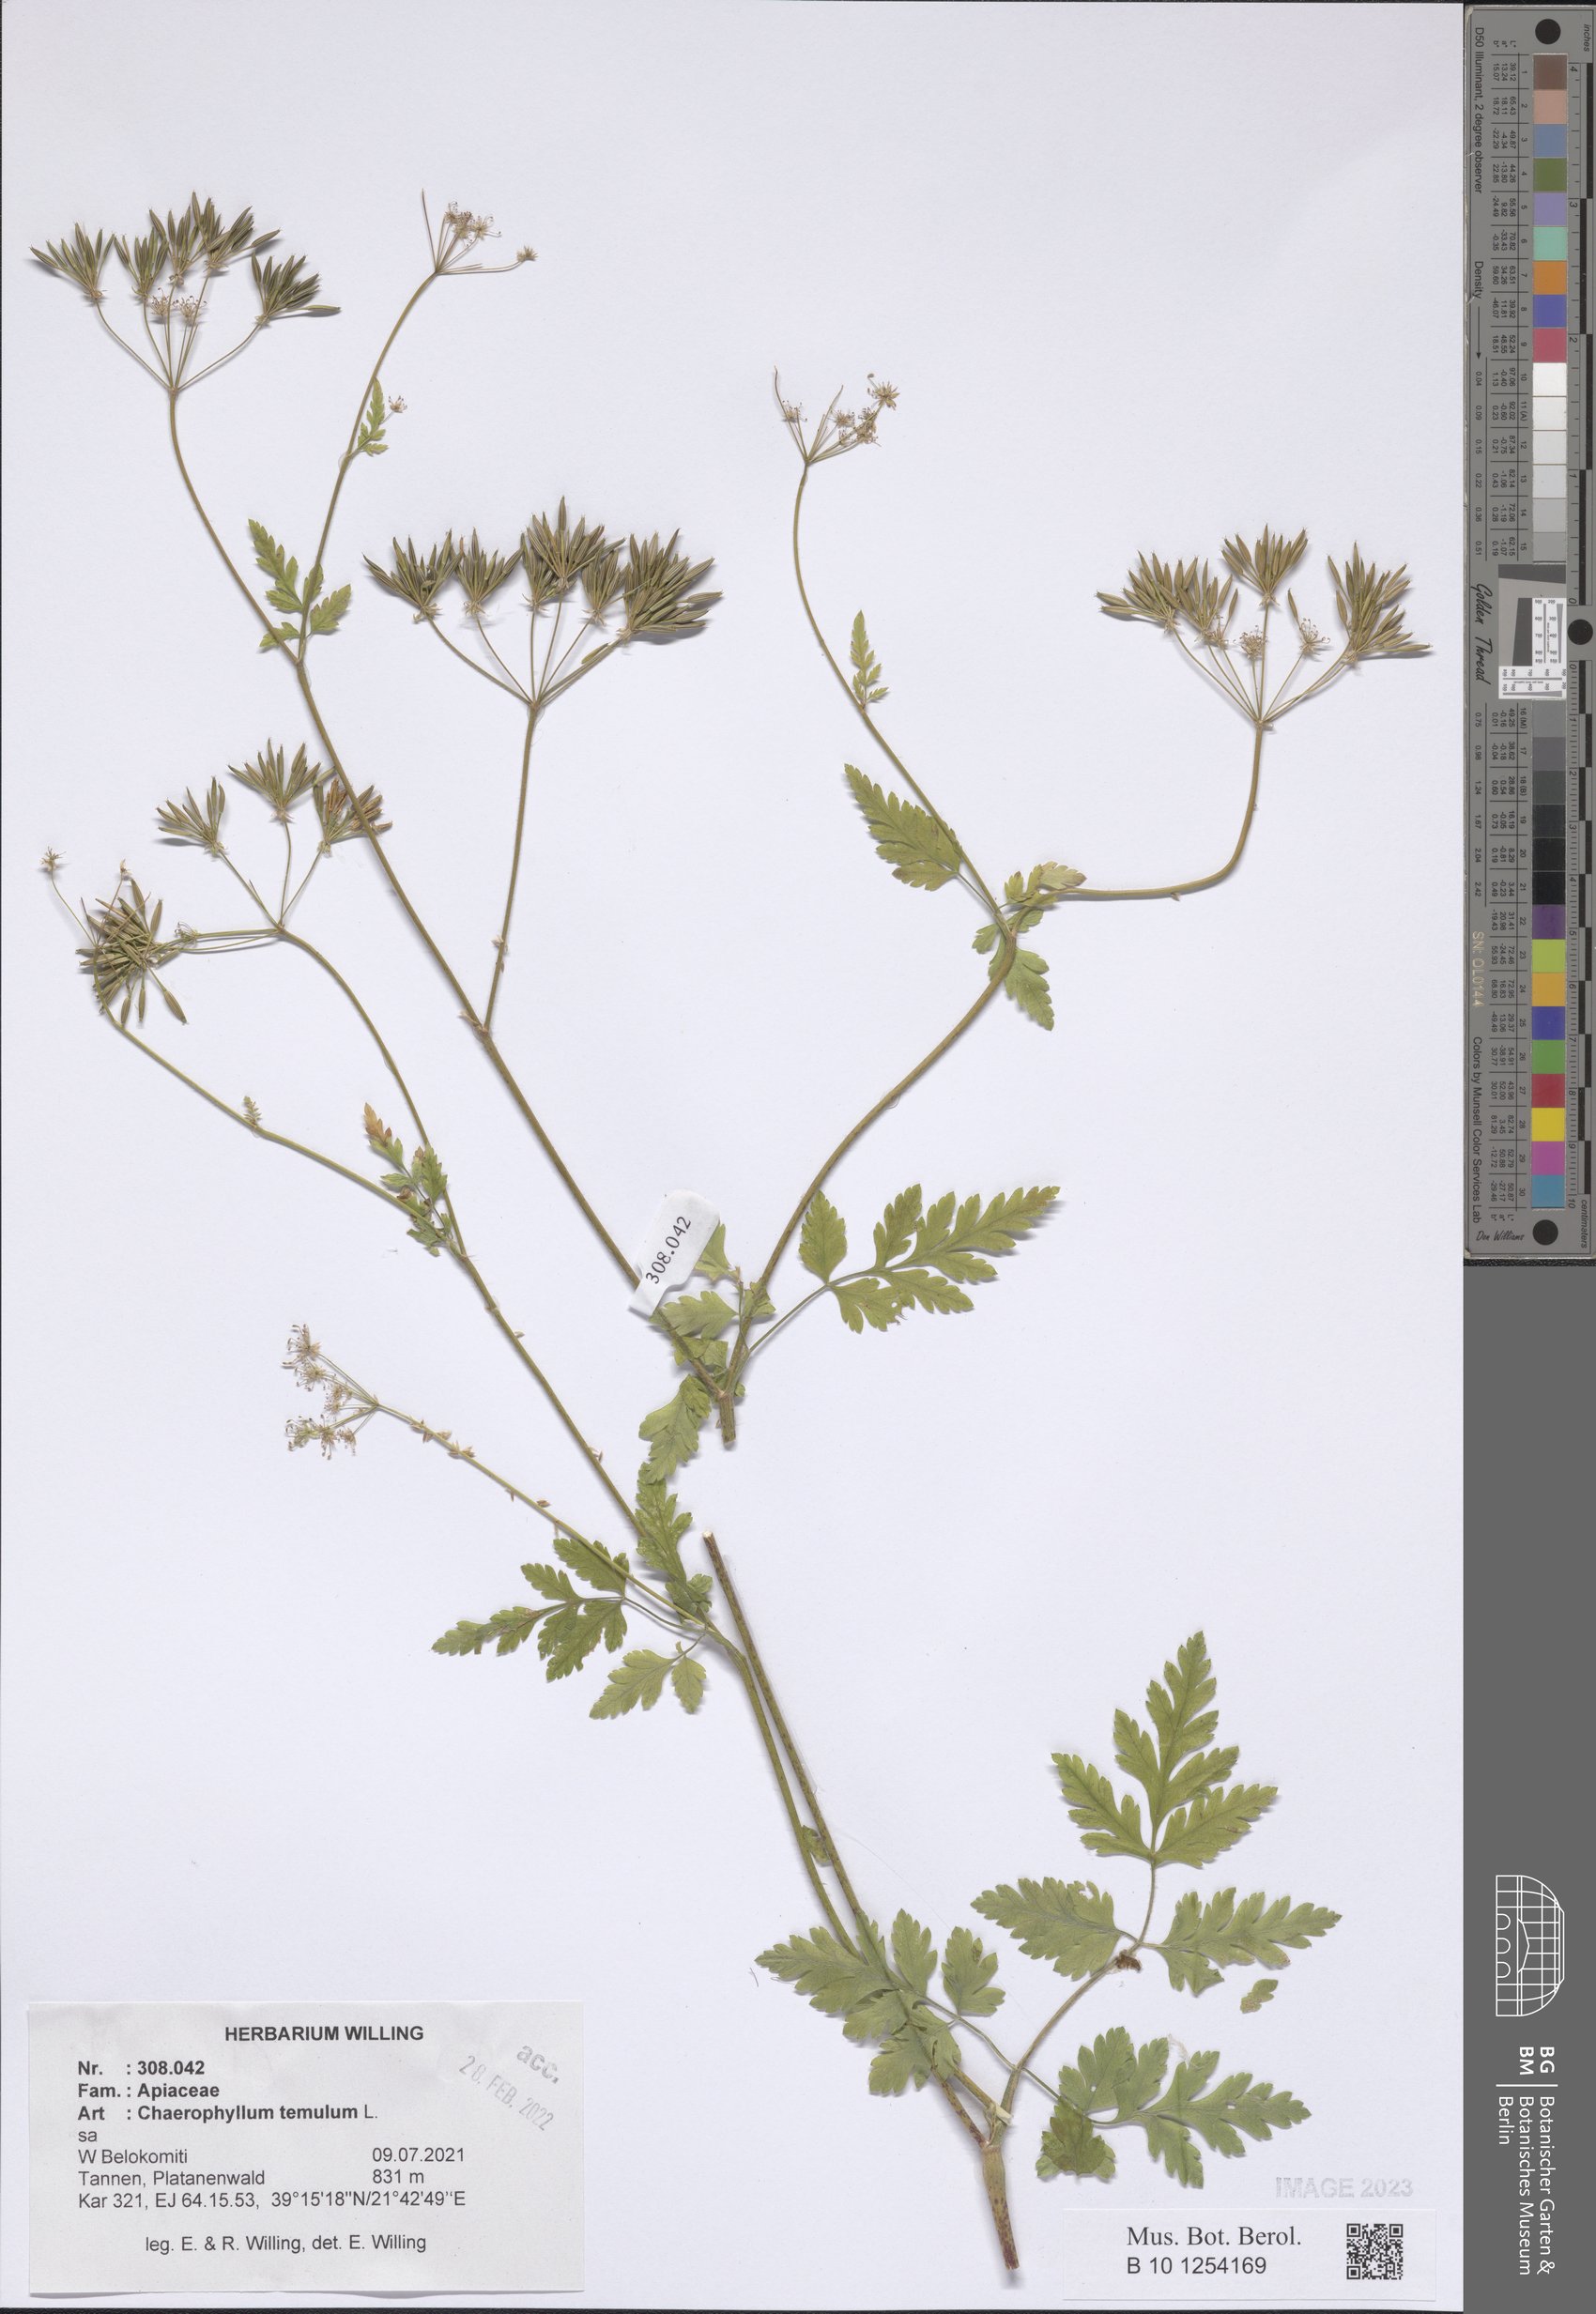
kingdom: Plantae
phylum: Tracheophyta
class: Magnoliopsida
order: Apiales
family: Apiaceae
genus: Chaerophyllum
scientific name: Chaerophyllum temulum
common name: Rough chervil
